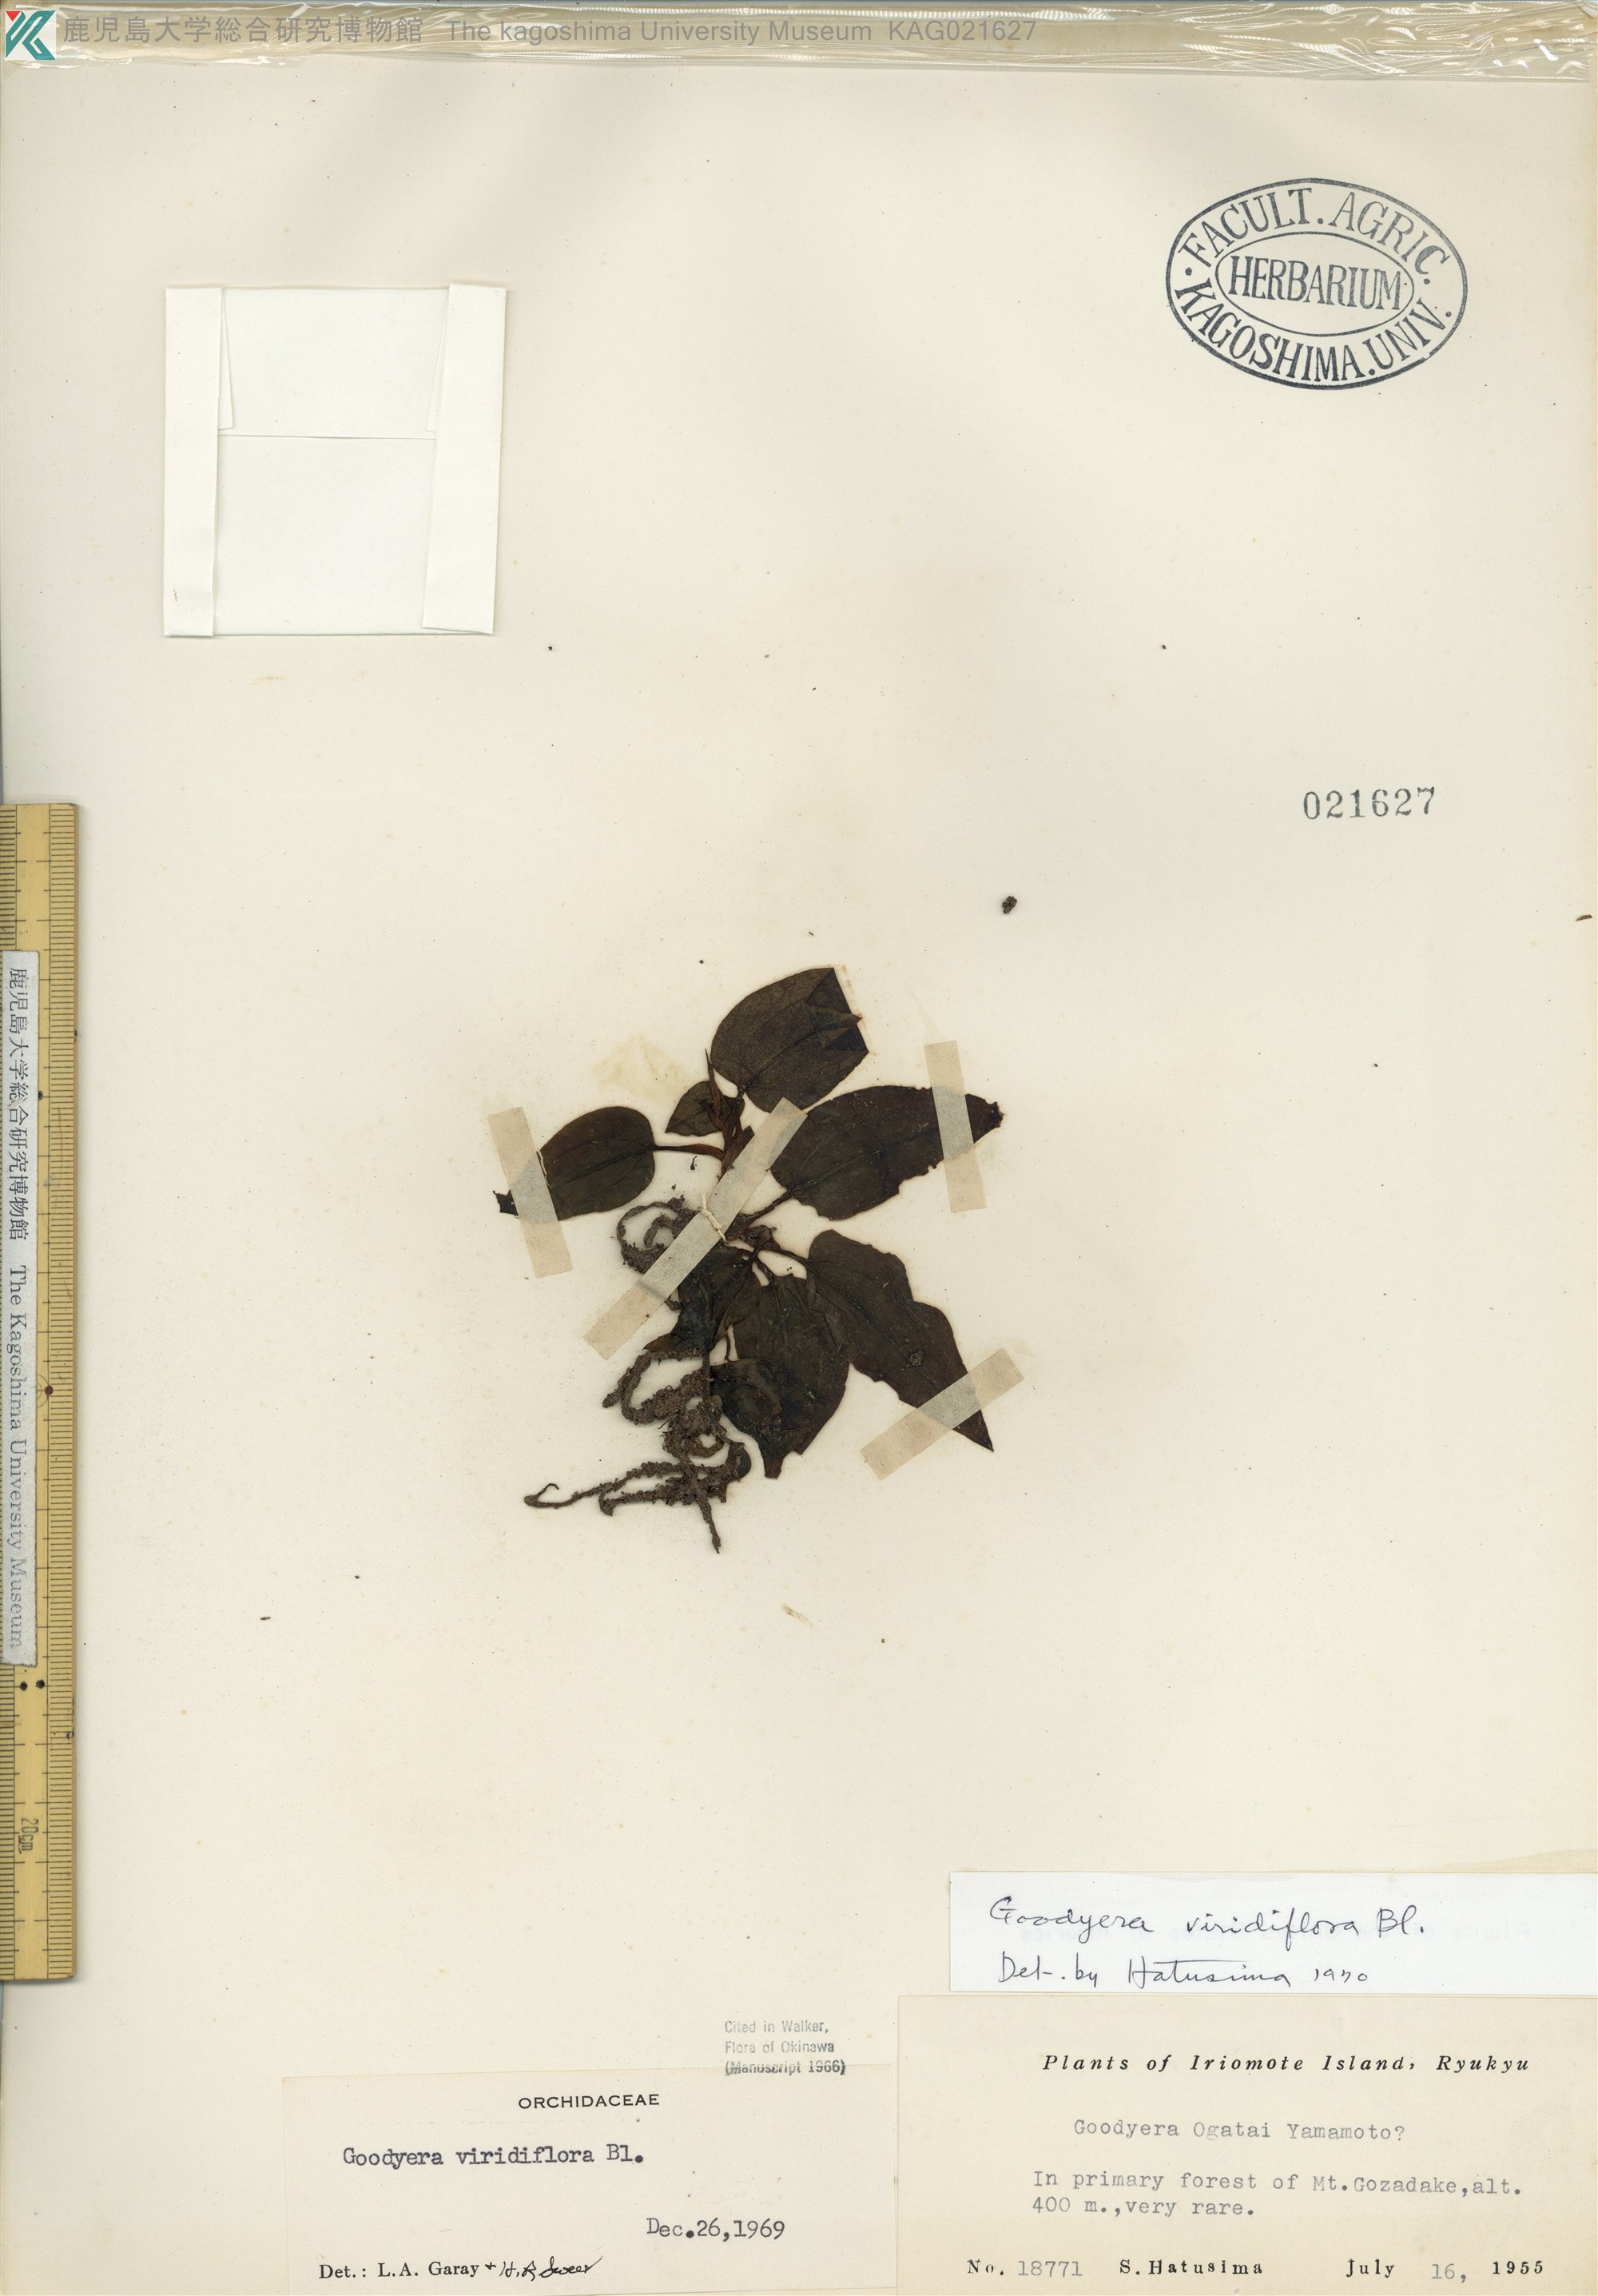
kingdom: Plantae
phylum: Tracheophyta
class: Liliopsida
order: Asparagales
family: Orchidaceae
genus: Goodyera
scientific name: Goodyera viridiflora
